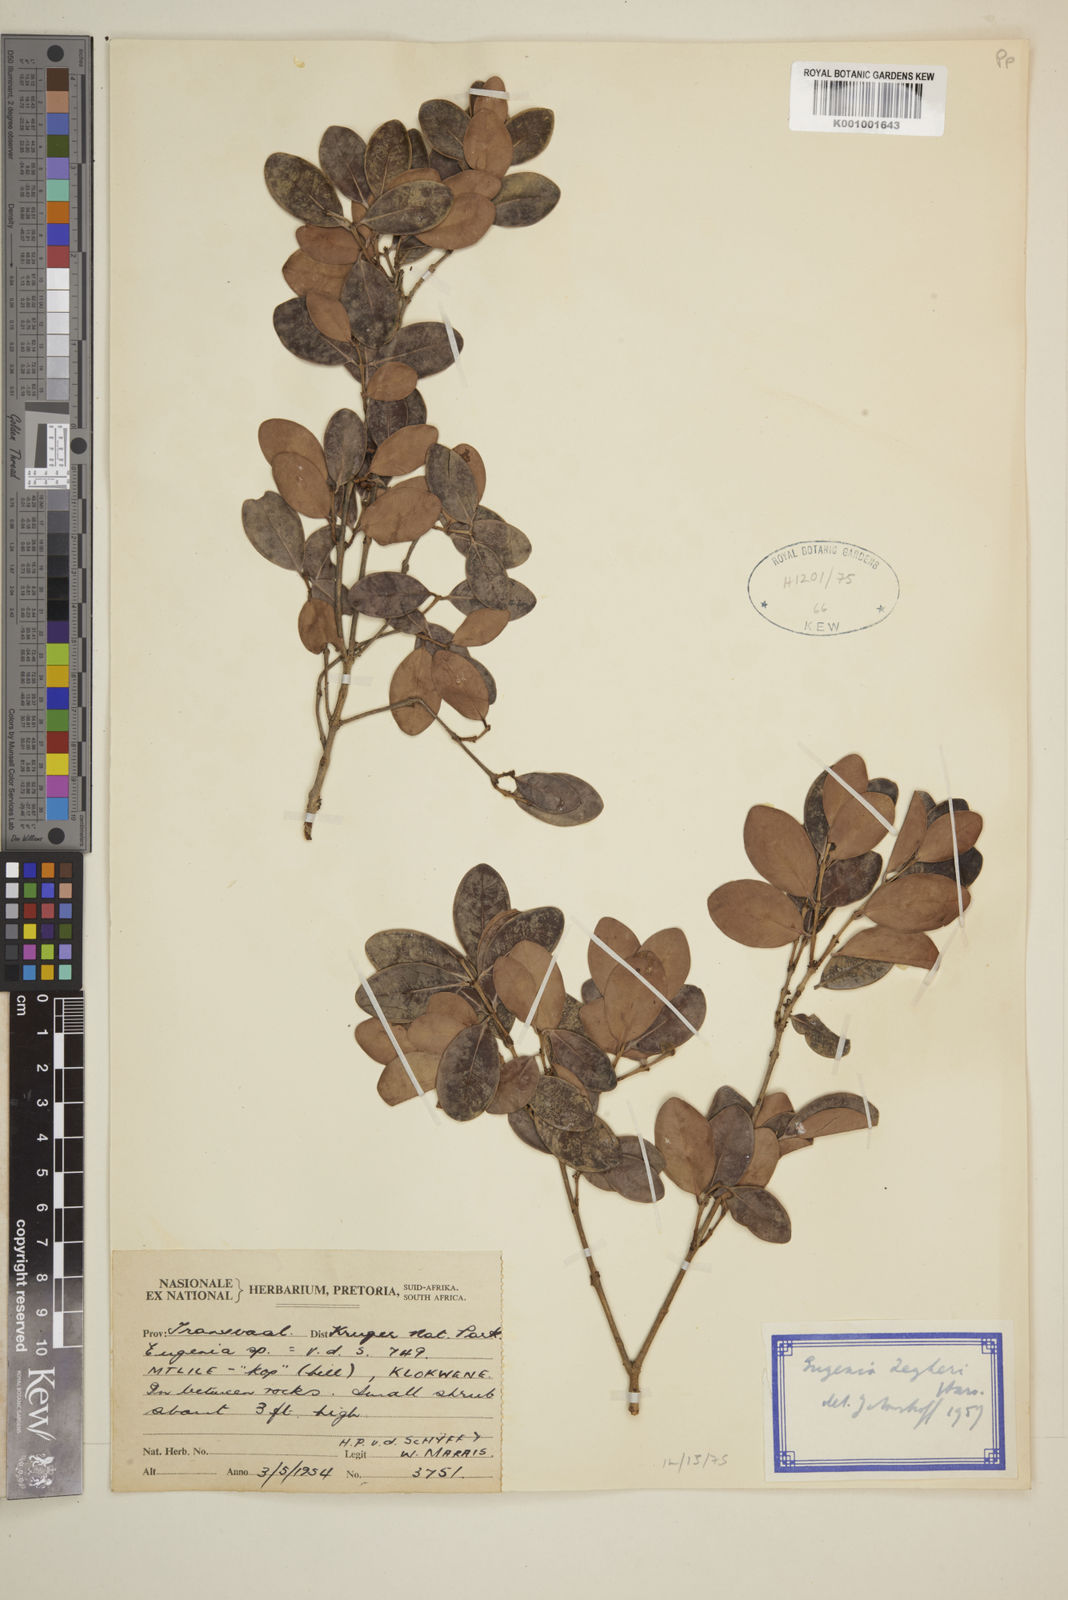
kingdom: Plantae
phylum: Tracheophyta
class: Magnoliopsida
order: Myrtales
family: Myrtaceae
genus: Eugenia
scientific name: Eugenia zeyheri
